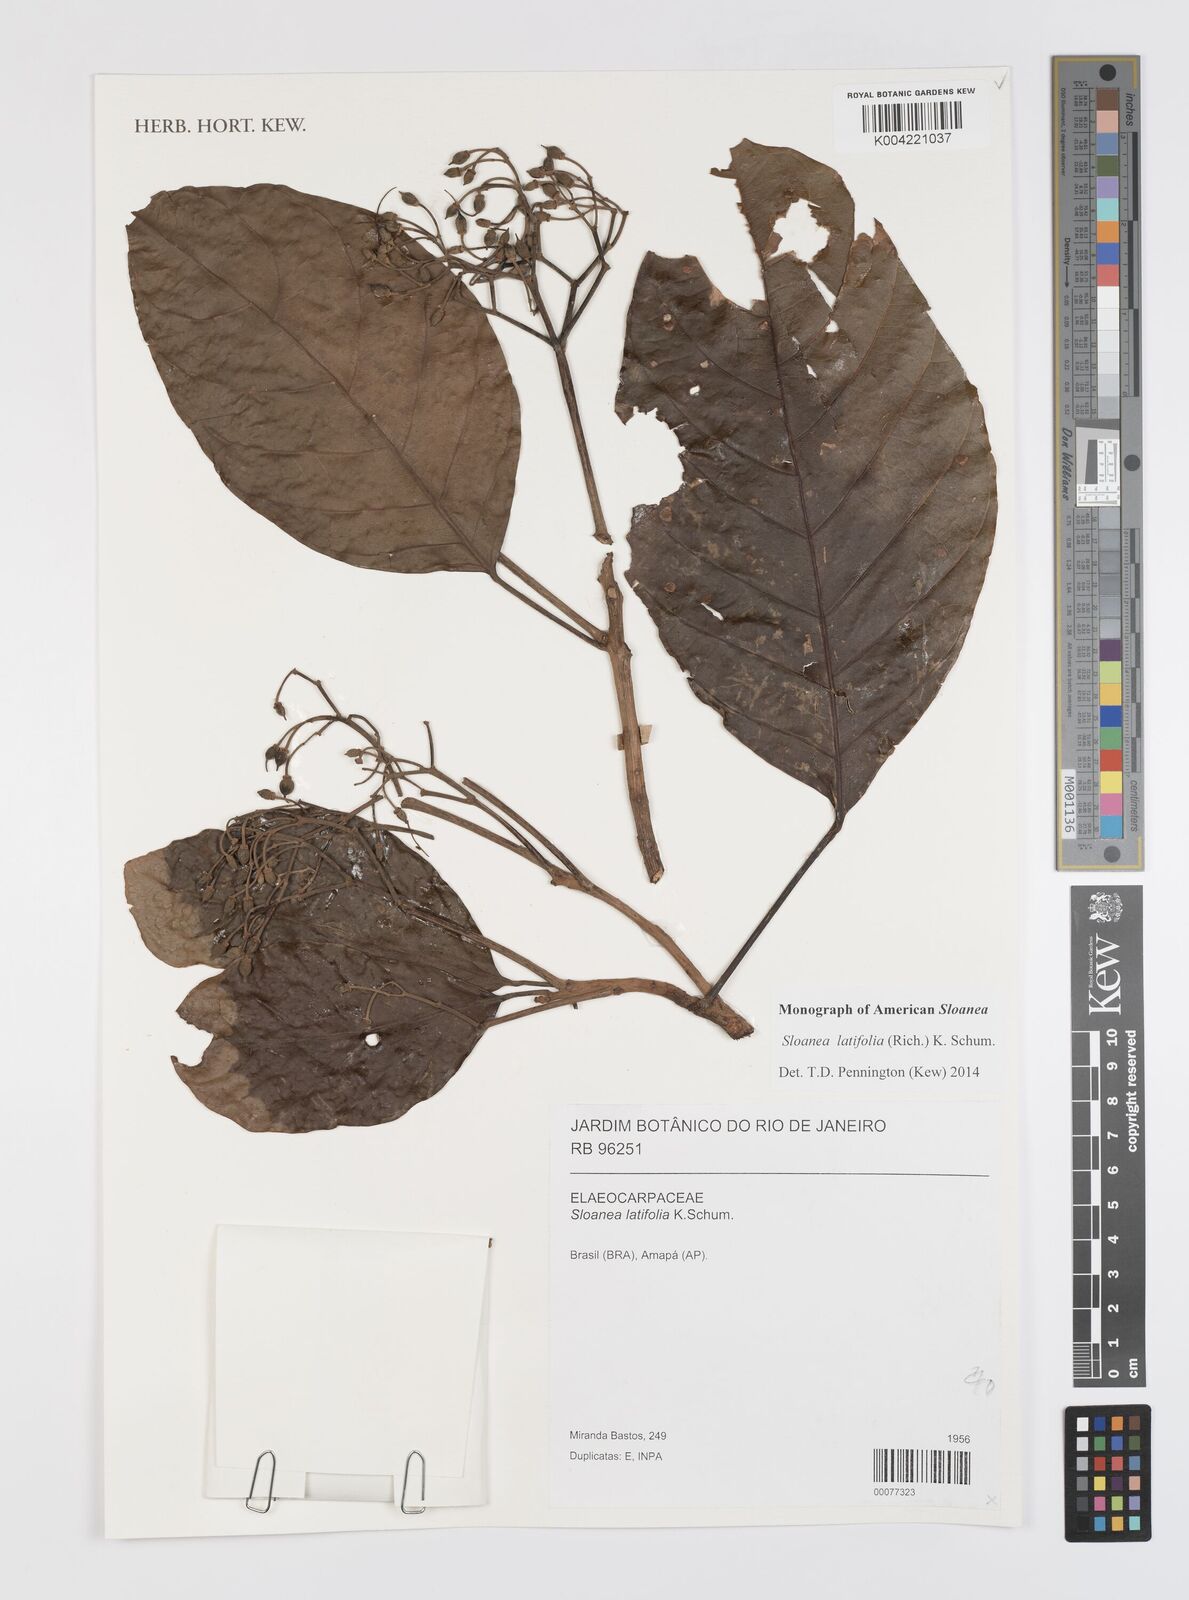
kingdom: Plantae
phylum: Tracheophyta
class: Magnoliopsida
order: Oxalidales
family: Elaeocarpaceae
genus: Sloanea
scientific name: Sloanea latifolia
